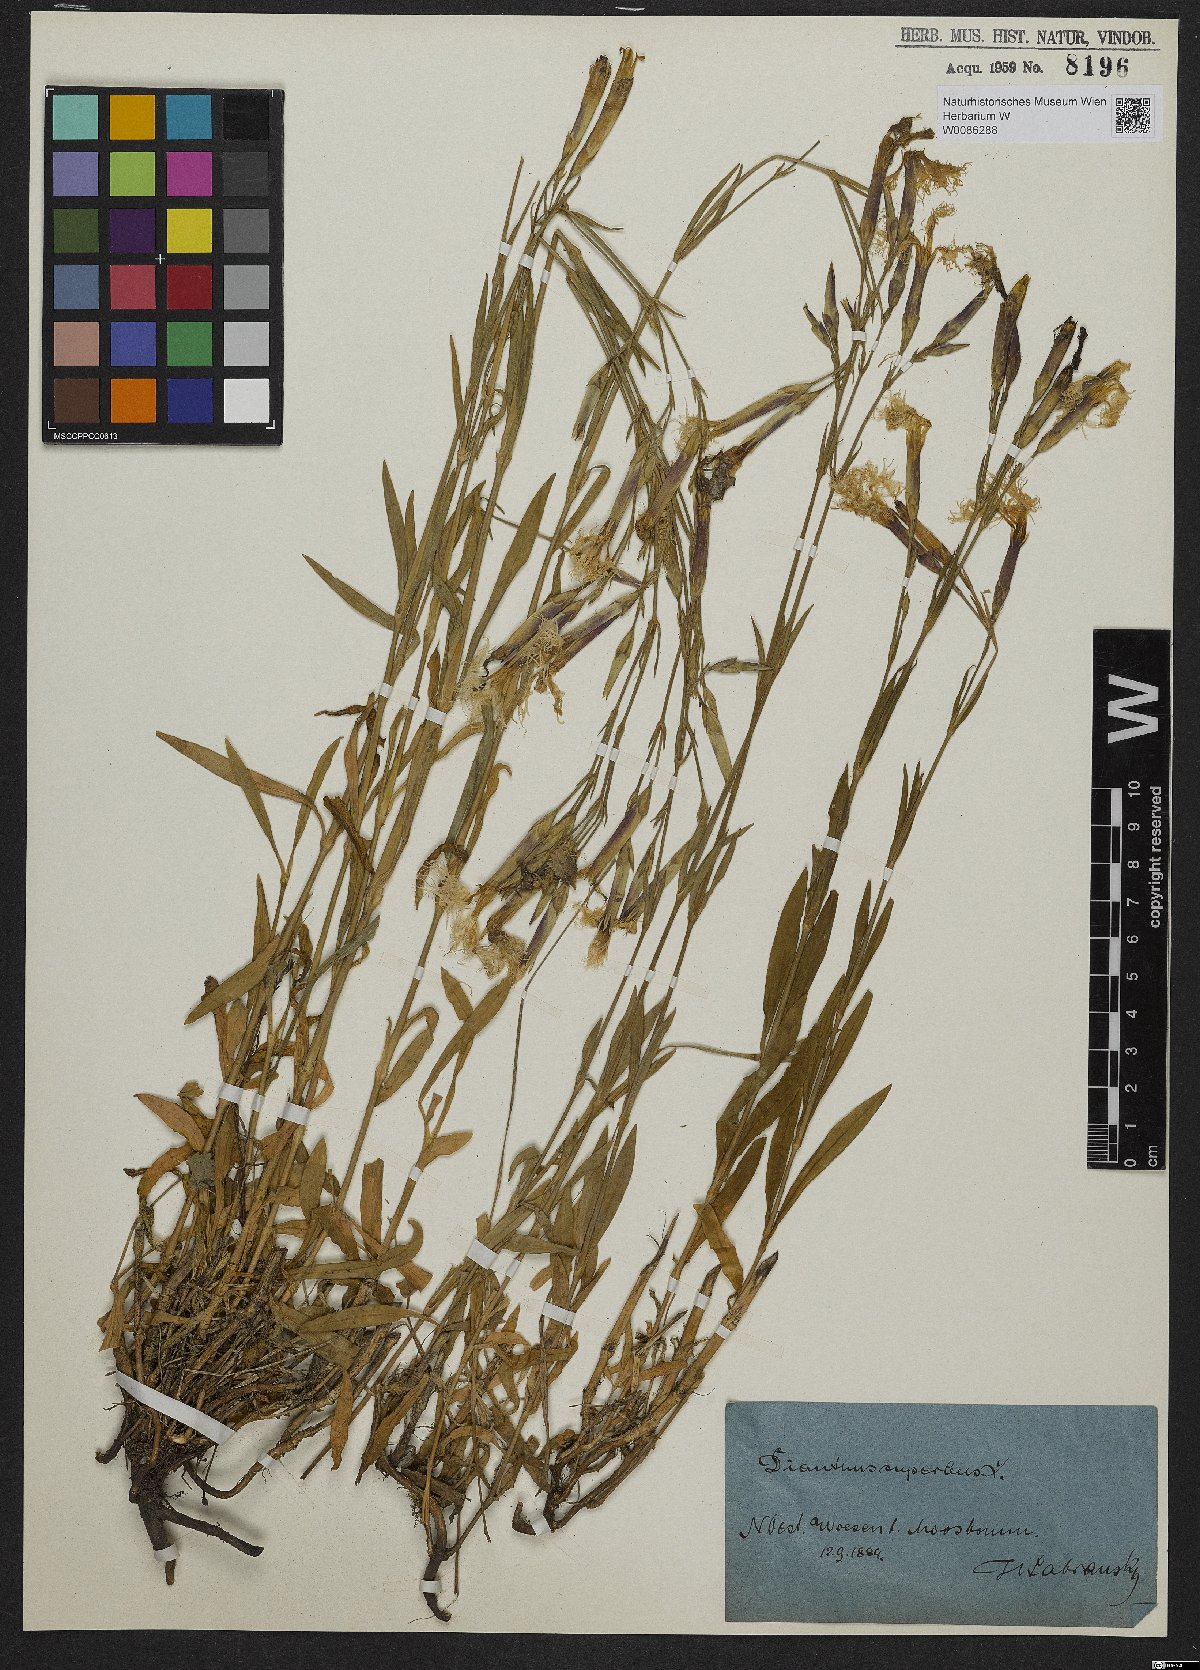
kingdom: Plantae
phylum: Tracheophyta
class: Magnoliopsida
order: Caryophyllales
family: Caryophyllaceae
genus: Dianthus
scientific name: Dianthus superbus
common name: Fringed pink
